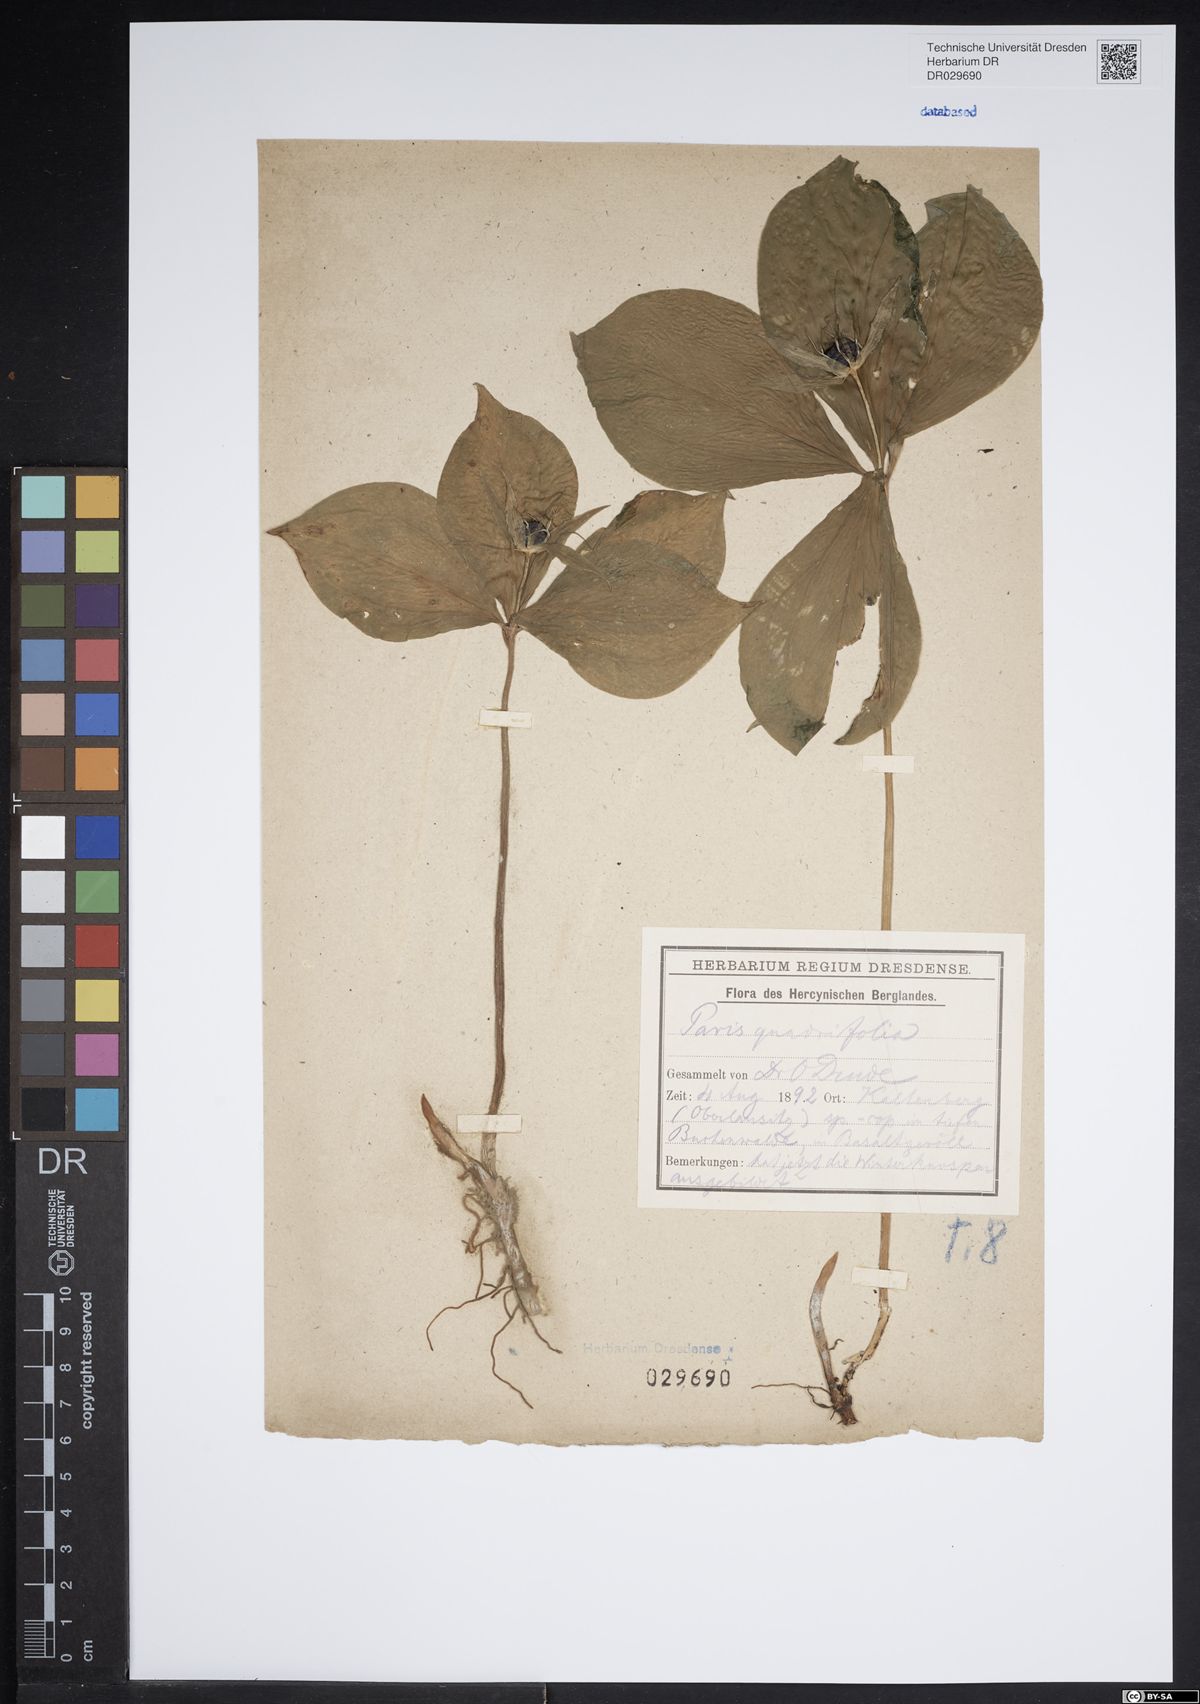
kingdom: Plantae
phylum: Tracheophyta
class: Liliopsida
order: Liliales
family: Melanthiaceae
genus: Paris
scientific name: Paris quadrifolia
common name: Herb-paris
